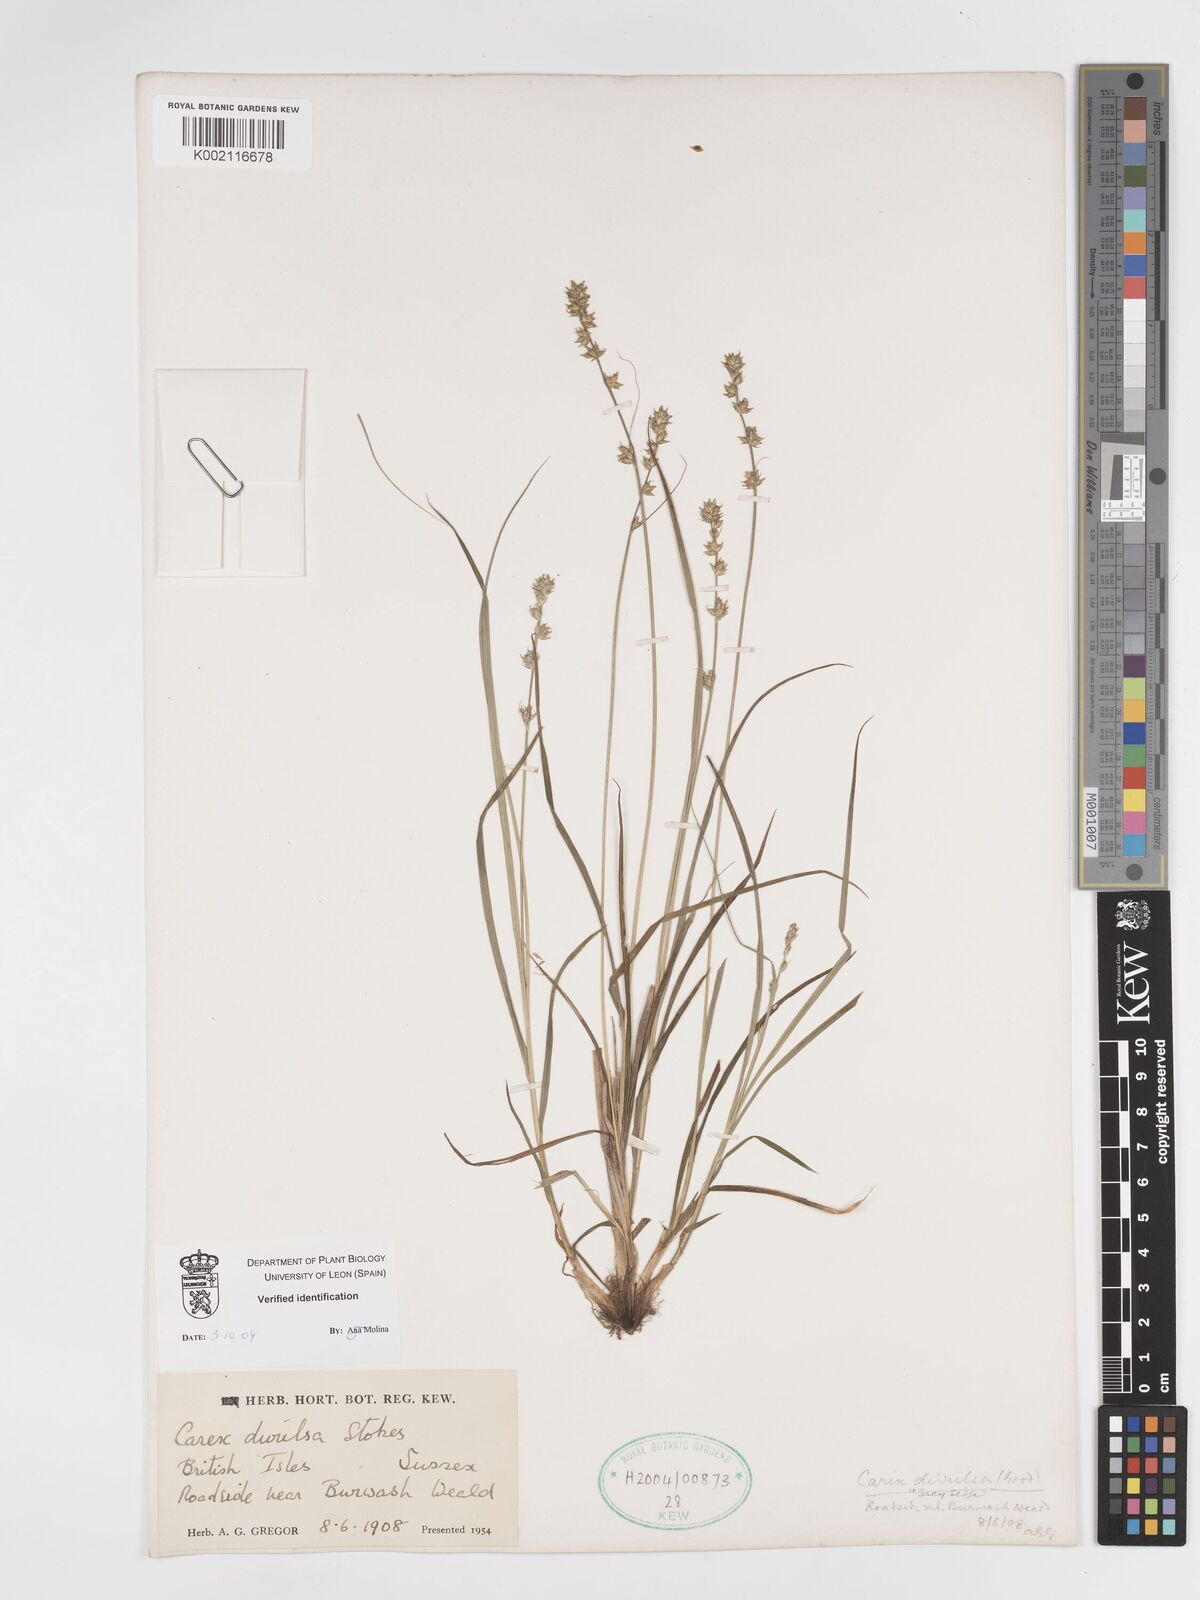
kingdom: Plantae
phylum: Tracheophyta
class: Liliopsida
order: Poales
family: Cyperaceae
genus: Carex
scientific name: Carex divulsa
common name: Grassland sedge
